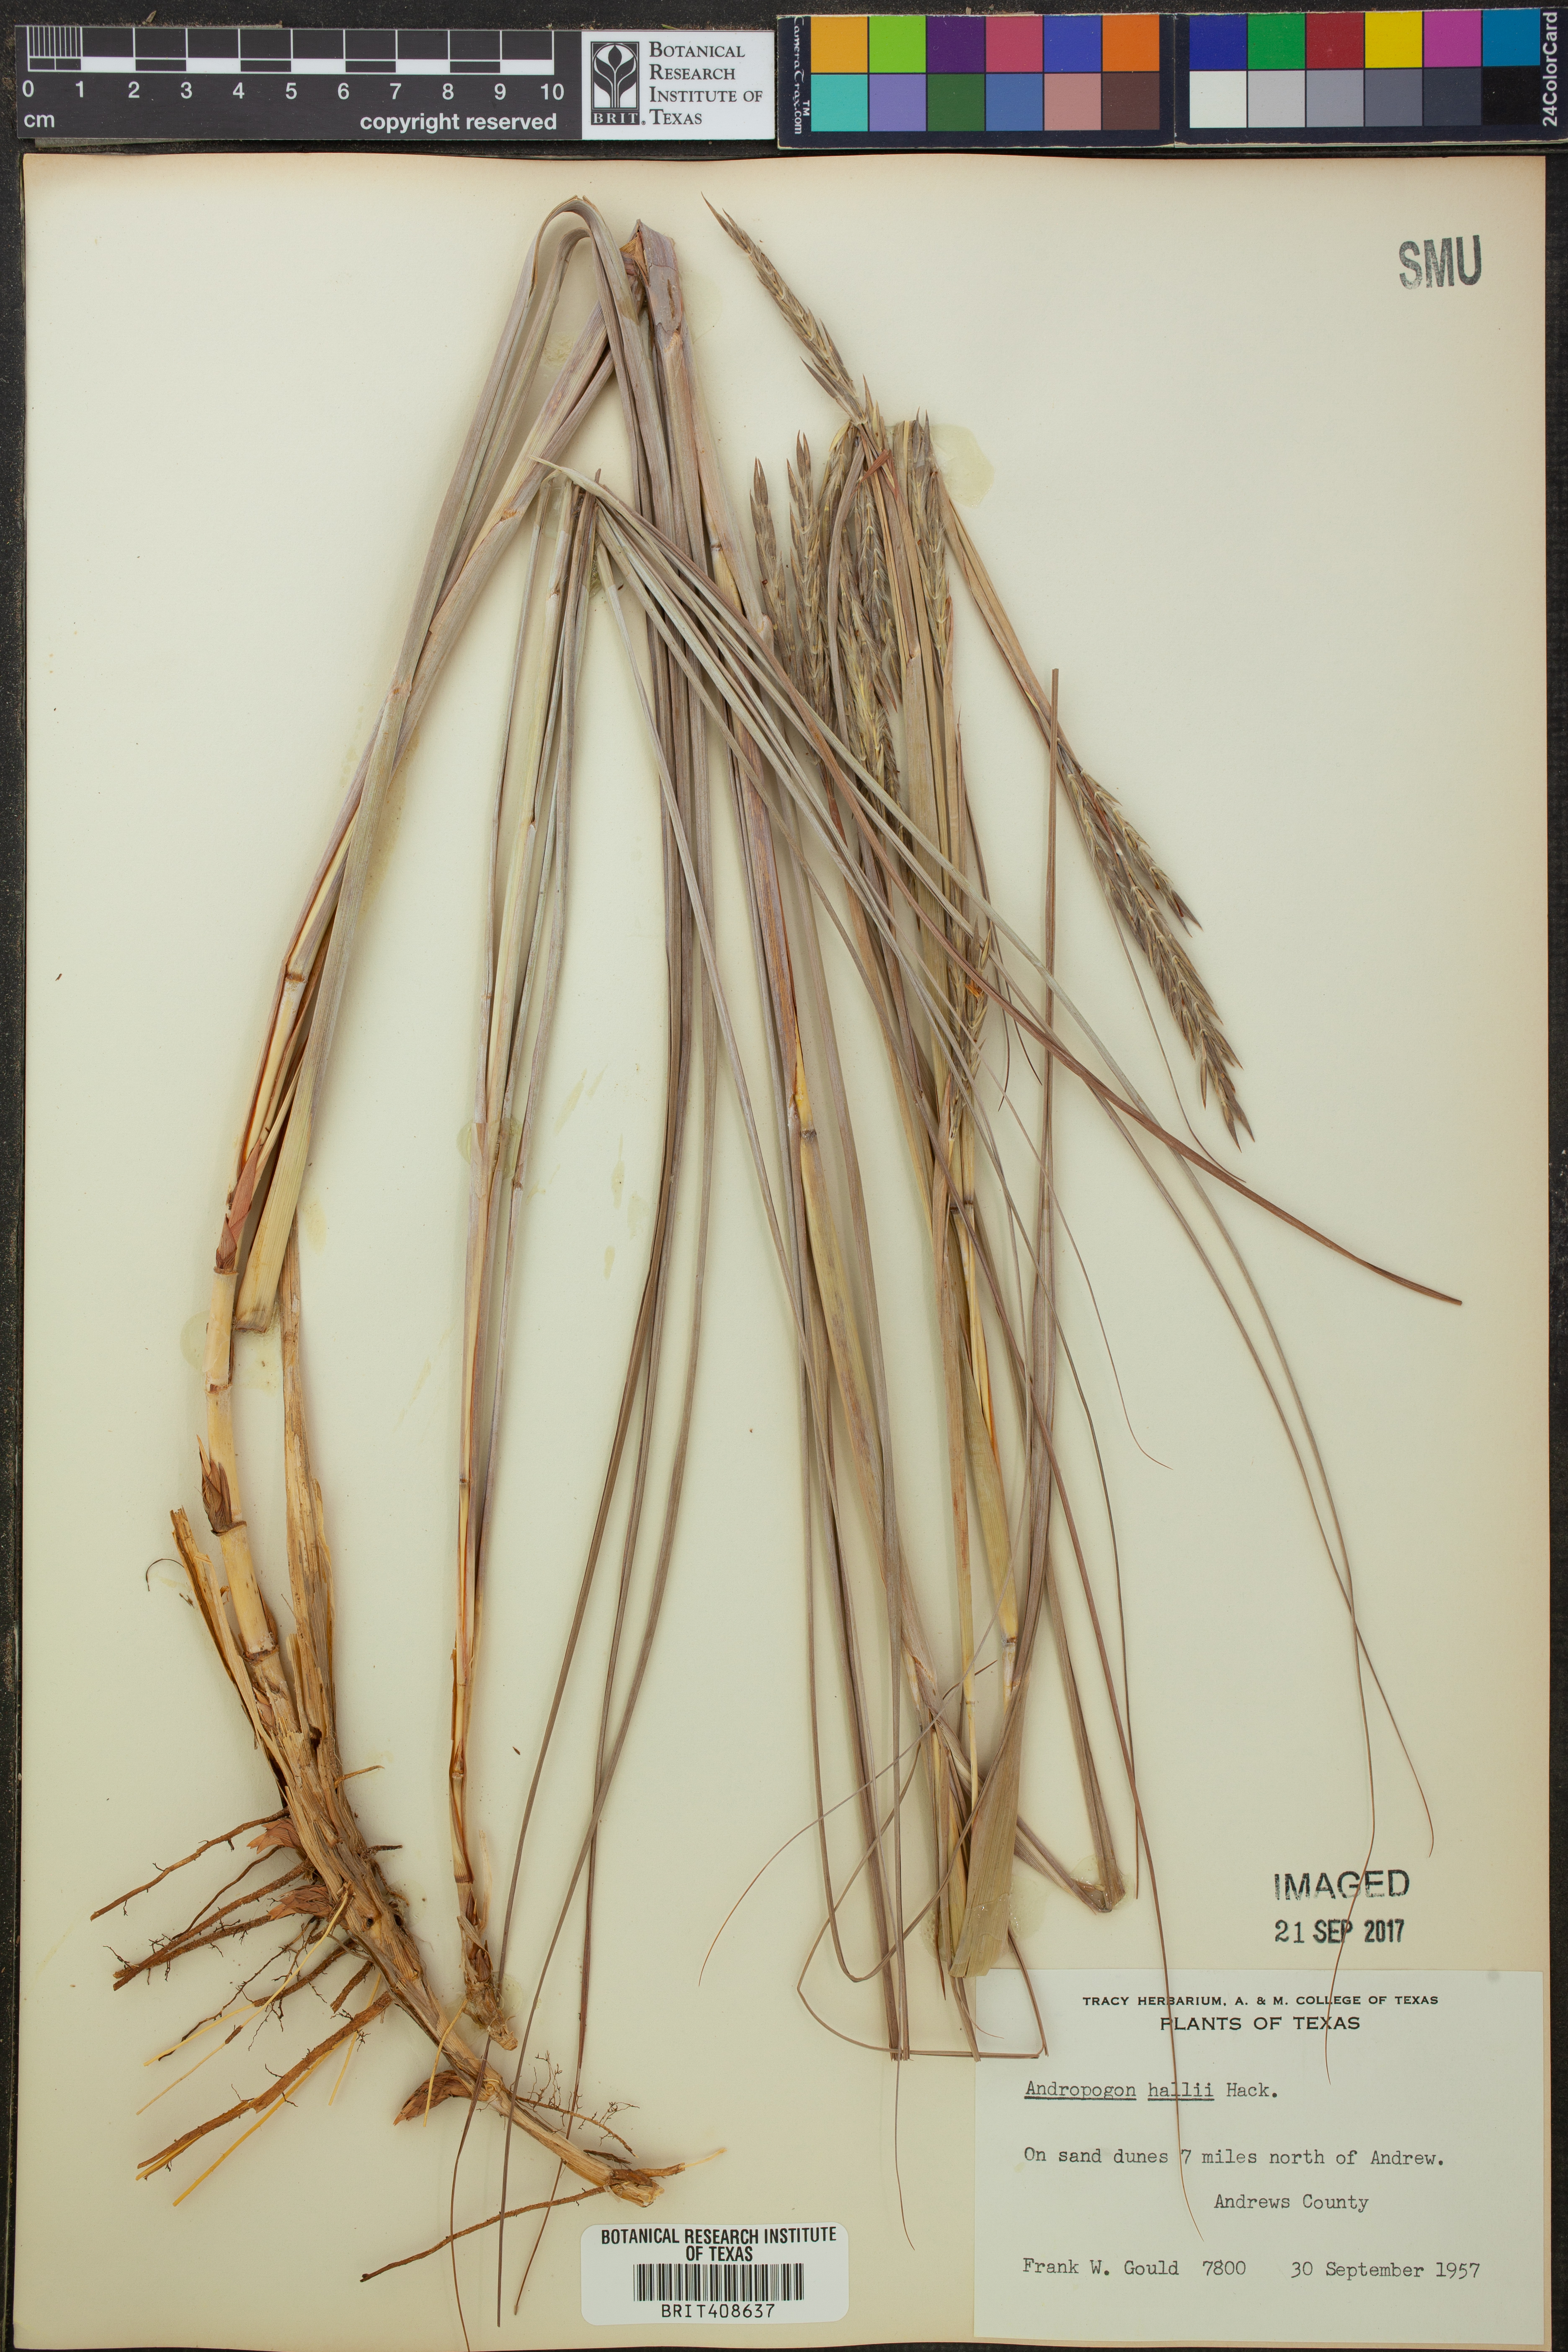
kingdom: Plantae
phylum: Tracheophyta
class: Liliopsida
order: Poales
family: Poaceae
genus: Andropogon
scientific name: Andropogon hallii
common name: Sand bluestem
